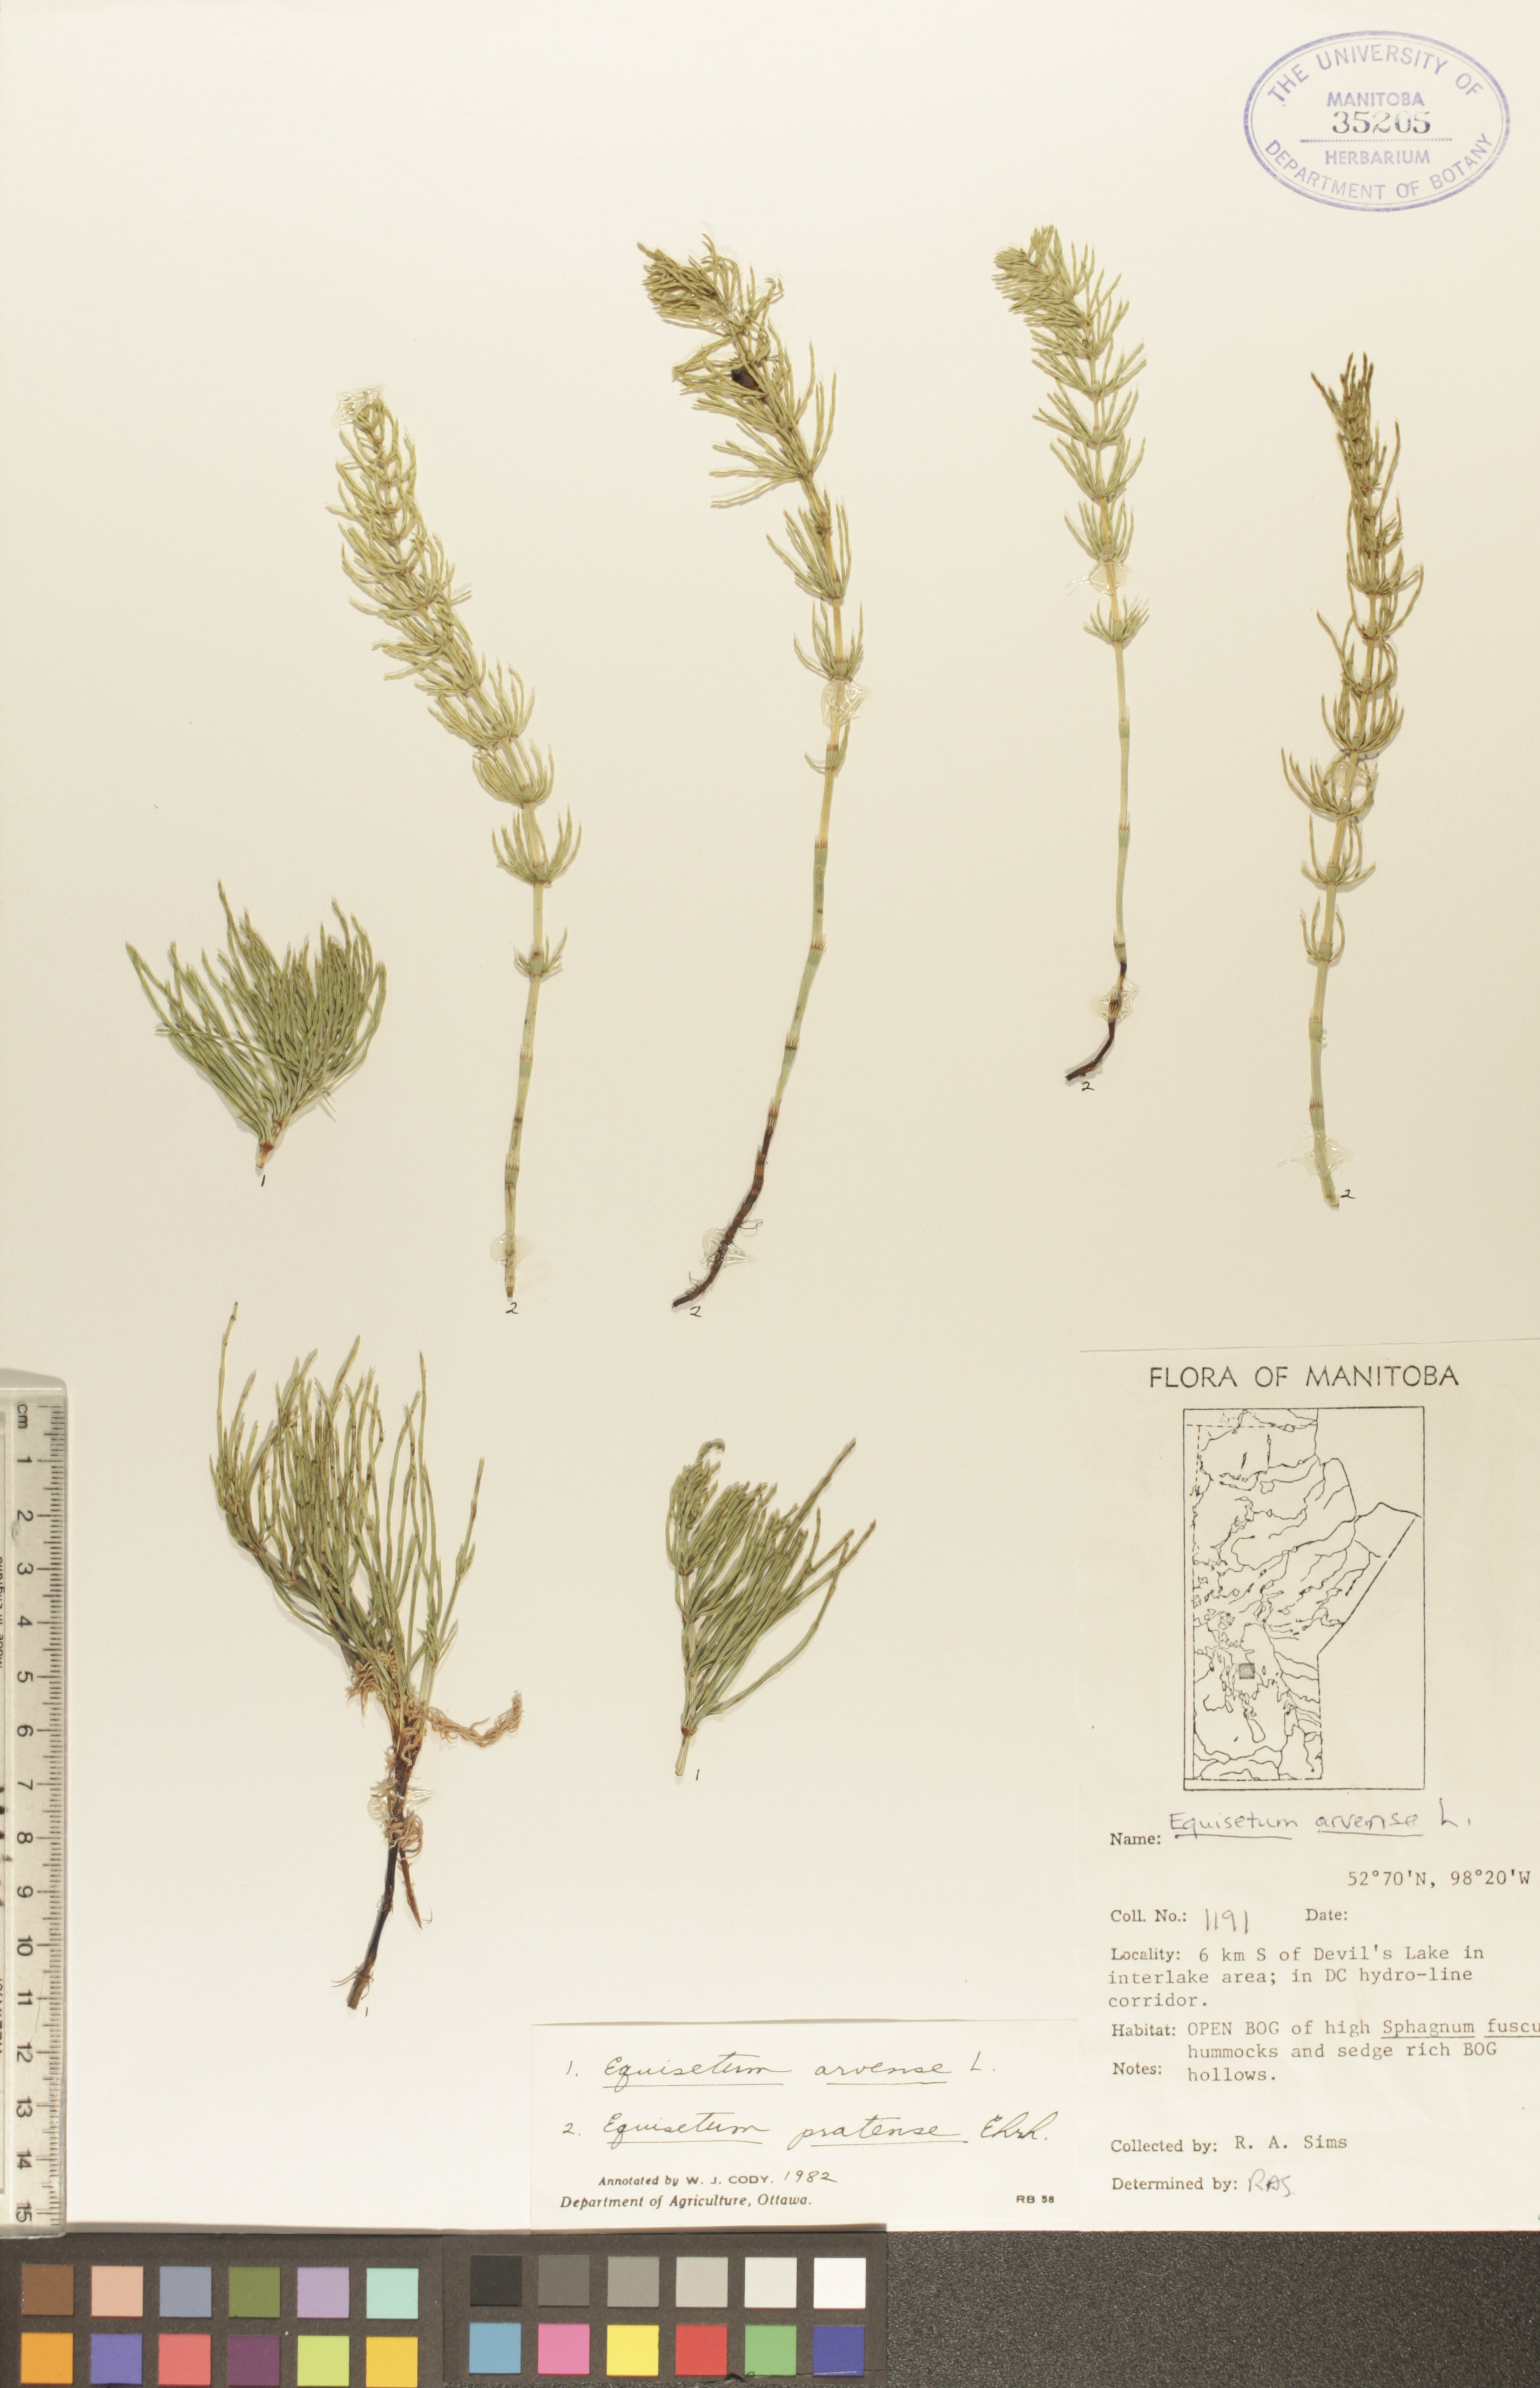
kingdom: Plantae
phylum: Tracheophyta
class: Polypodiopsida
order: Equisetales
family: Equisetaceae
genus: Equisetum
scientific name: Equisetum arvense
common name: Field horsetail
